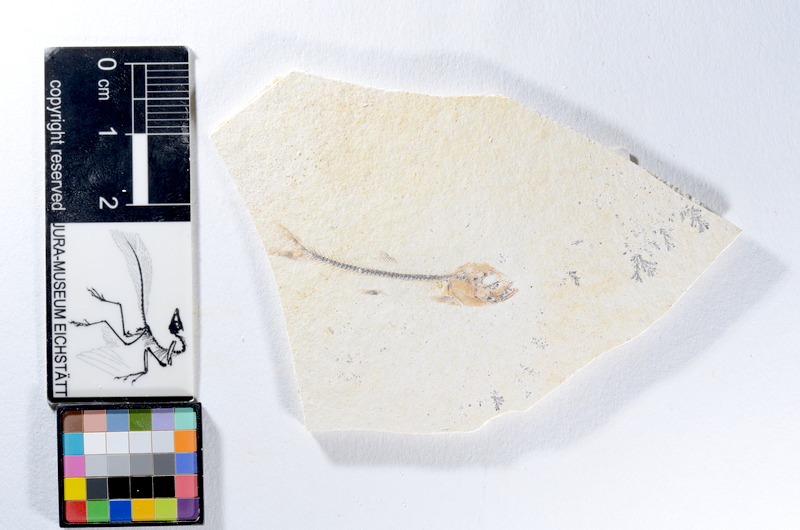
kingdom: Animalia
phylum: Chordata
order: Salmoniformes
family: Orthogonikleithridae
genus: Orthogonikleithrus
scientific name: Orthogonikleithrus hoelli
